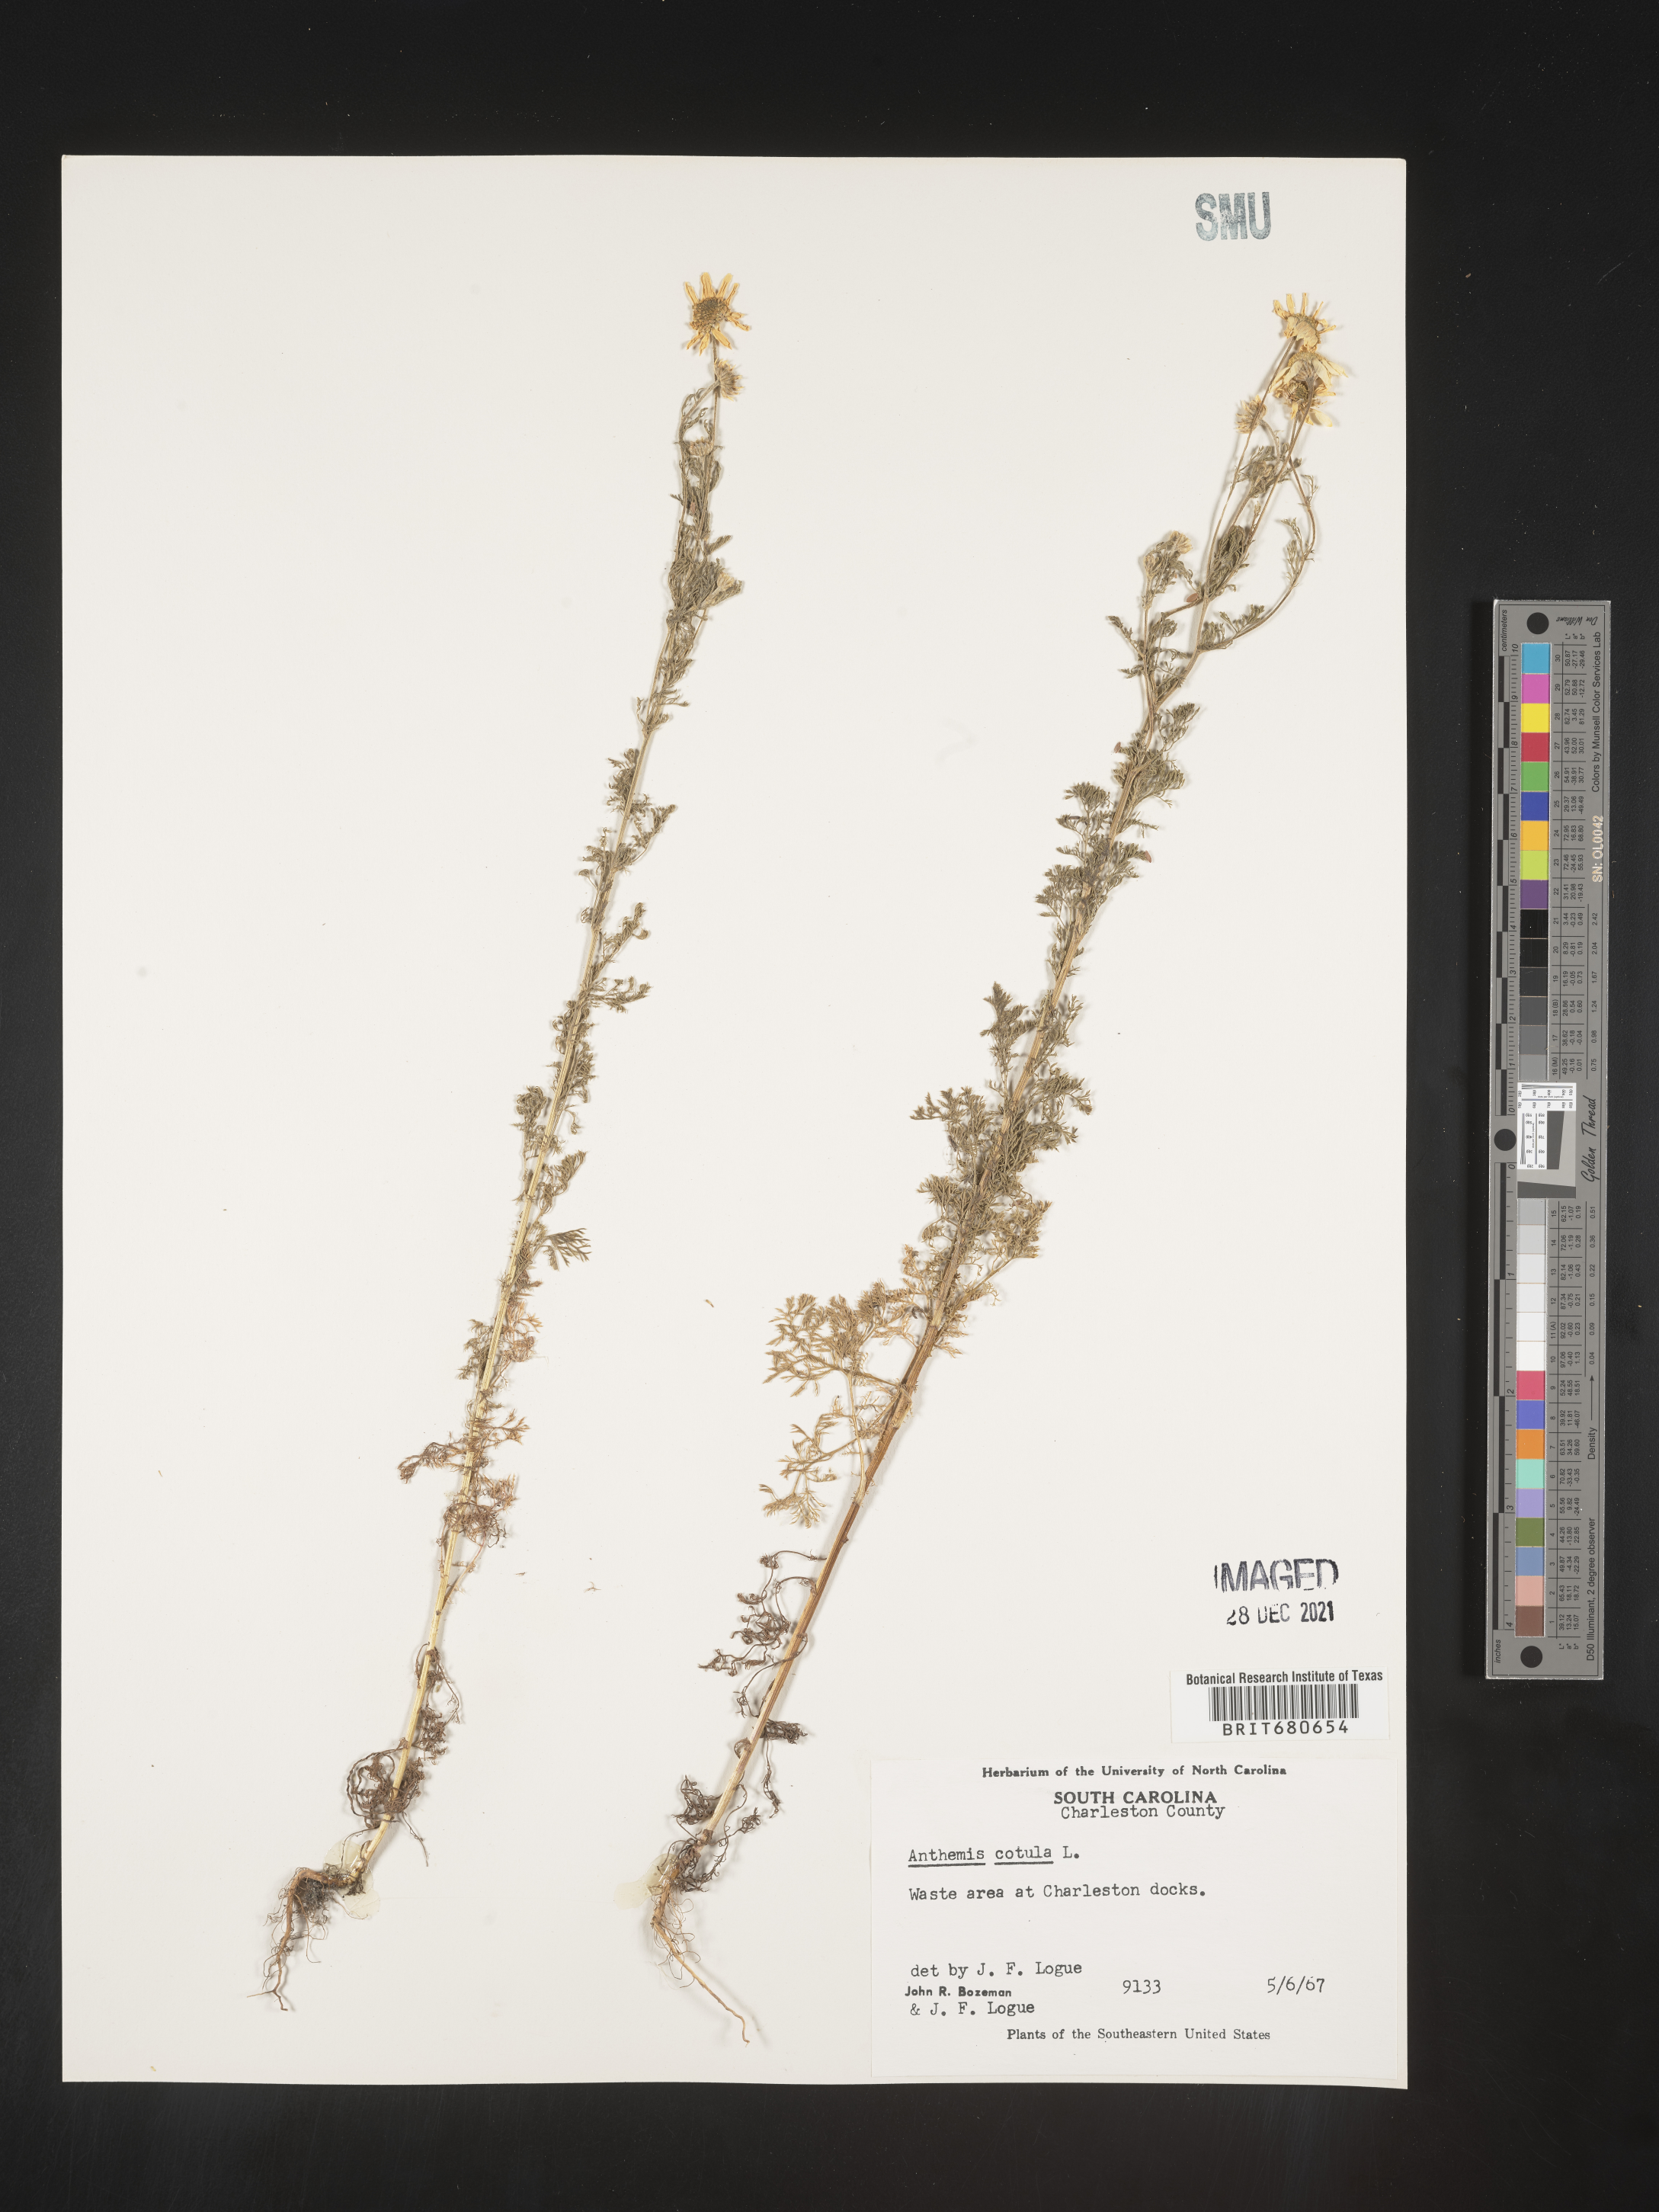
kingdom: Plantae
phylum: Tracheophyta
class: Magnoliopsida
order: Asterales
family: Asteraceae
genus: Anthemis
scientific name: Anthemis cotula
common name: Stinking chamomile
